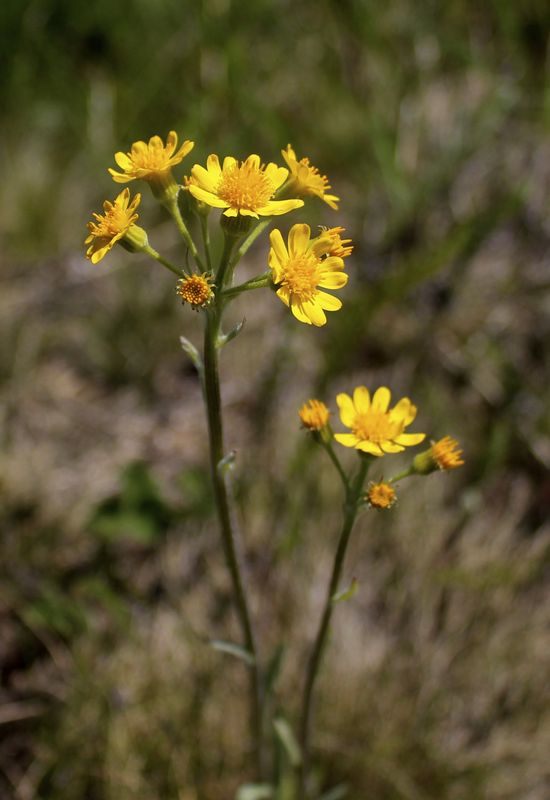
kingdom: Plantae
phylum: Tracheophyta
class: Magnoliopsida
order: Asterales
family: Asteraceae
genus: Tephroseris
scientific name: Tephroseris integrifolia
